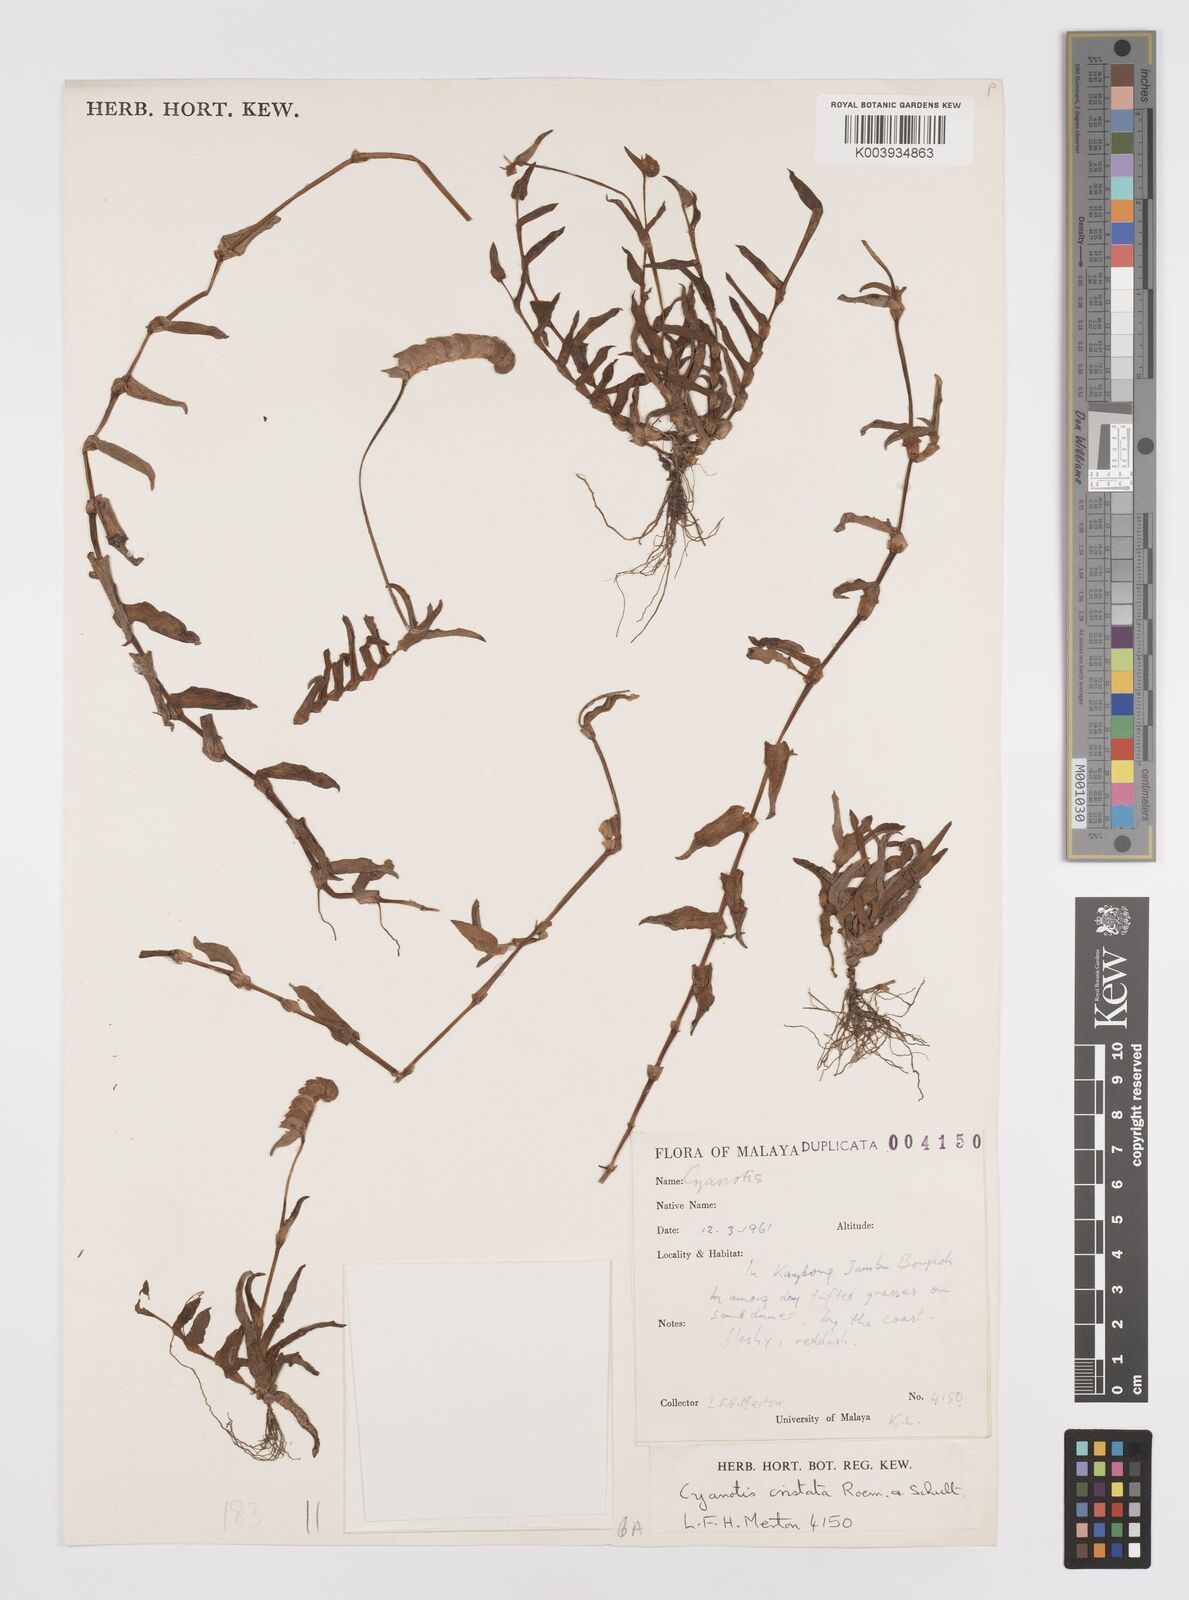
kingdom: Plantae
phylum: Tracheophyta
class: Liliopsida
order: Commelinales
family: Commelinaceae
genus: Cyanotis
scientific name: Cyanotis cristata
